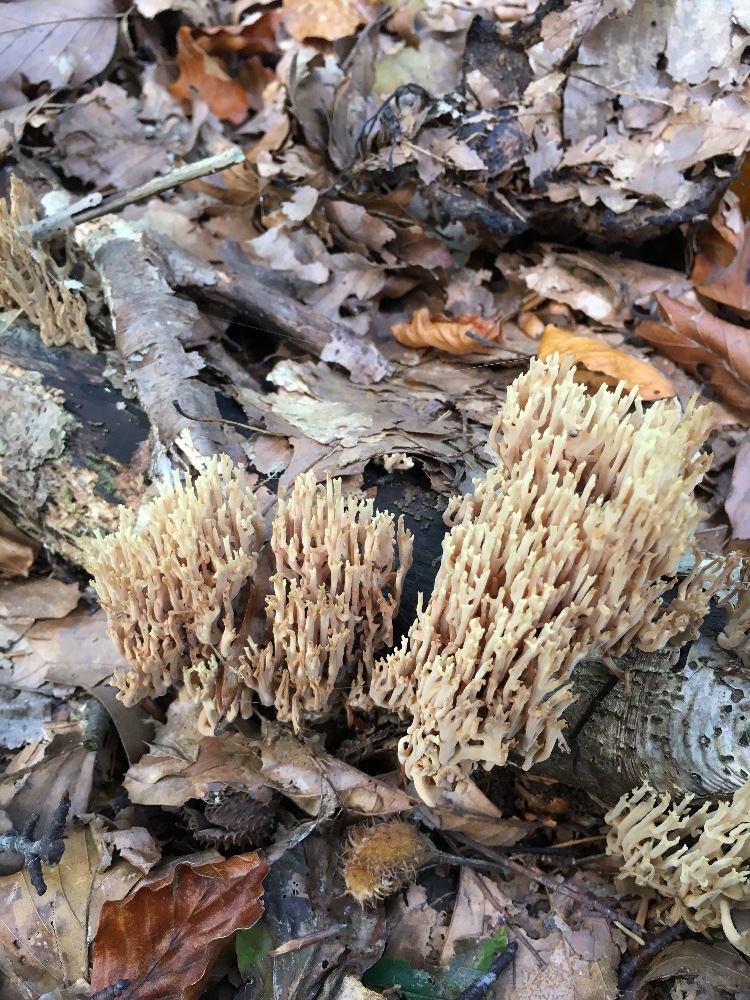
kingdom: Fungi
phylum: Basidiomycota
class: Agaricomycetes
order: Gomphales
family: Gomphaceae
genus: Ramaria
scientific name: Ramaria stricta
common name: rank koralsvamp
